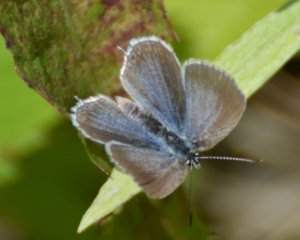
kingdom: Animalia
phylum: Arthropoda
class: Insecta
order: Lepidoptera
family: Lycaenidae
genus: Elkalyce
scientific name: Elkalyce amyntula
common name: Western Tailed-Blue
